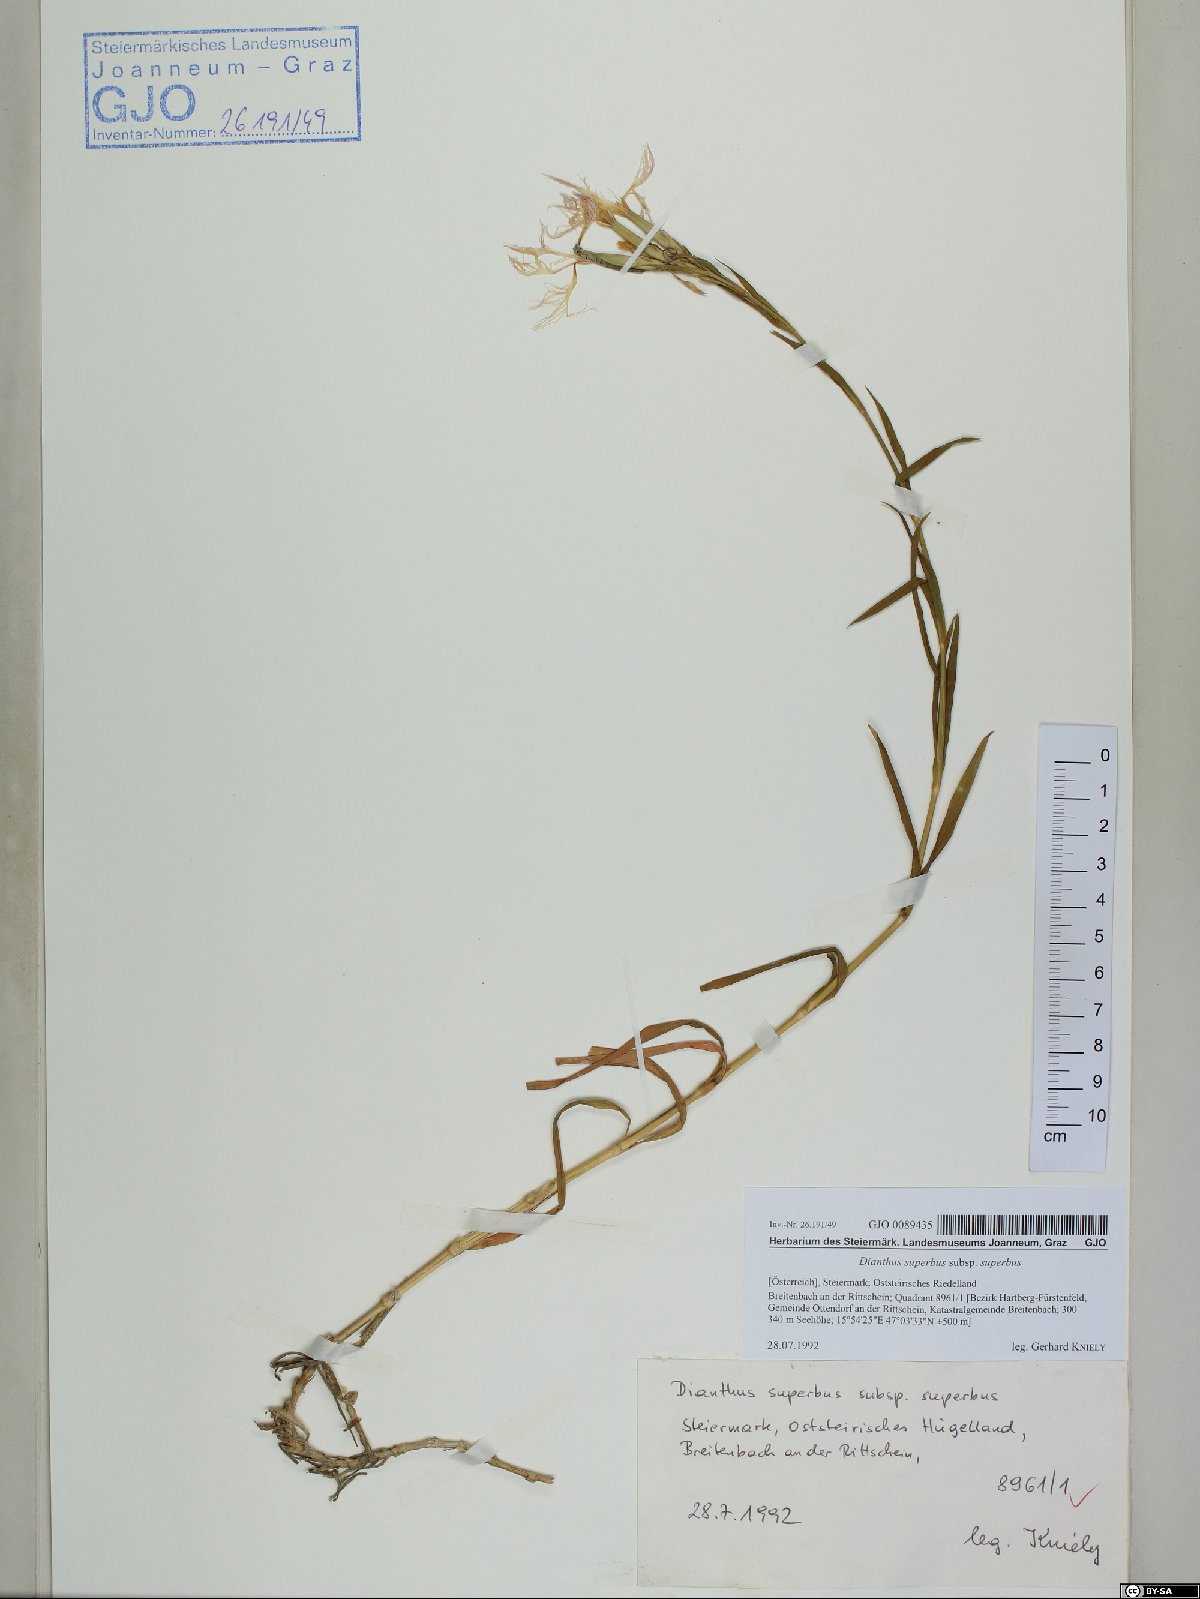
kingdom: Plantae
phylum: Tracheophyta
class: Magnoliopsida
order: Caryophyllales
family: Caryophyllaceae
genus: Dianthus
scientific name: Dianthus superbus
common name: Fringed pink
